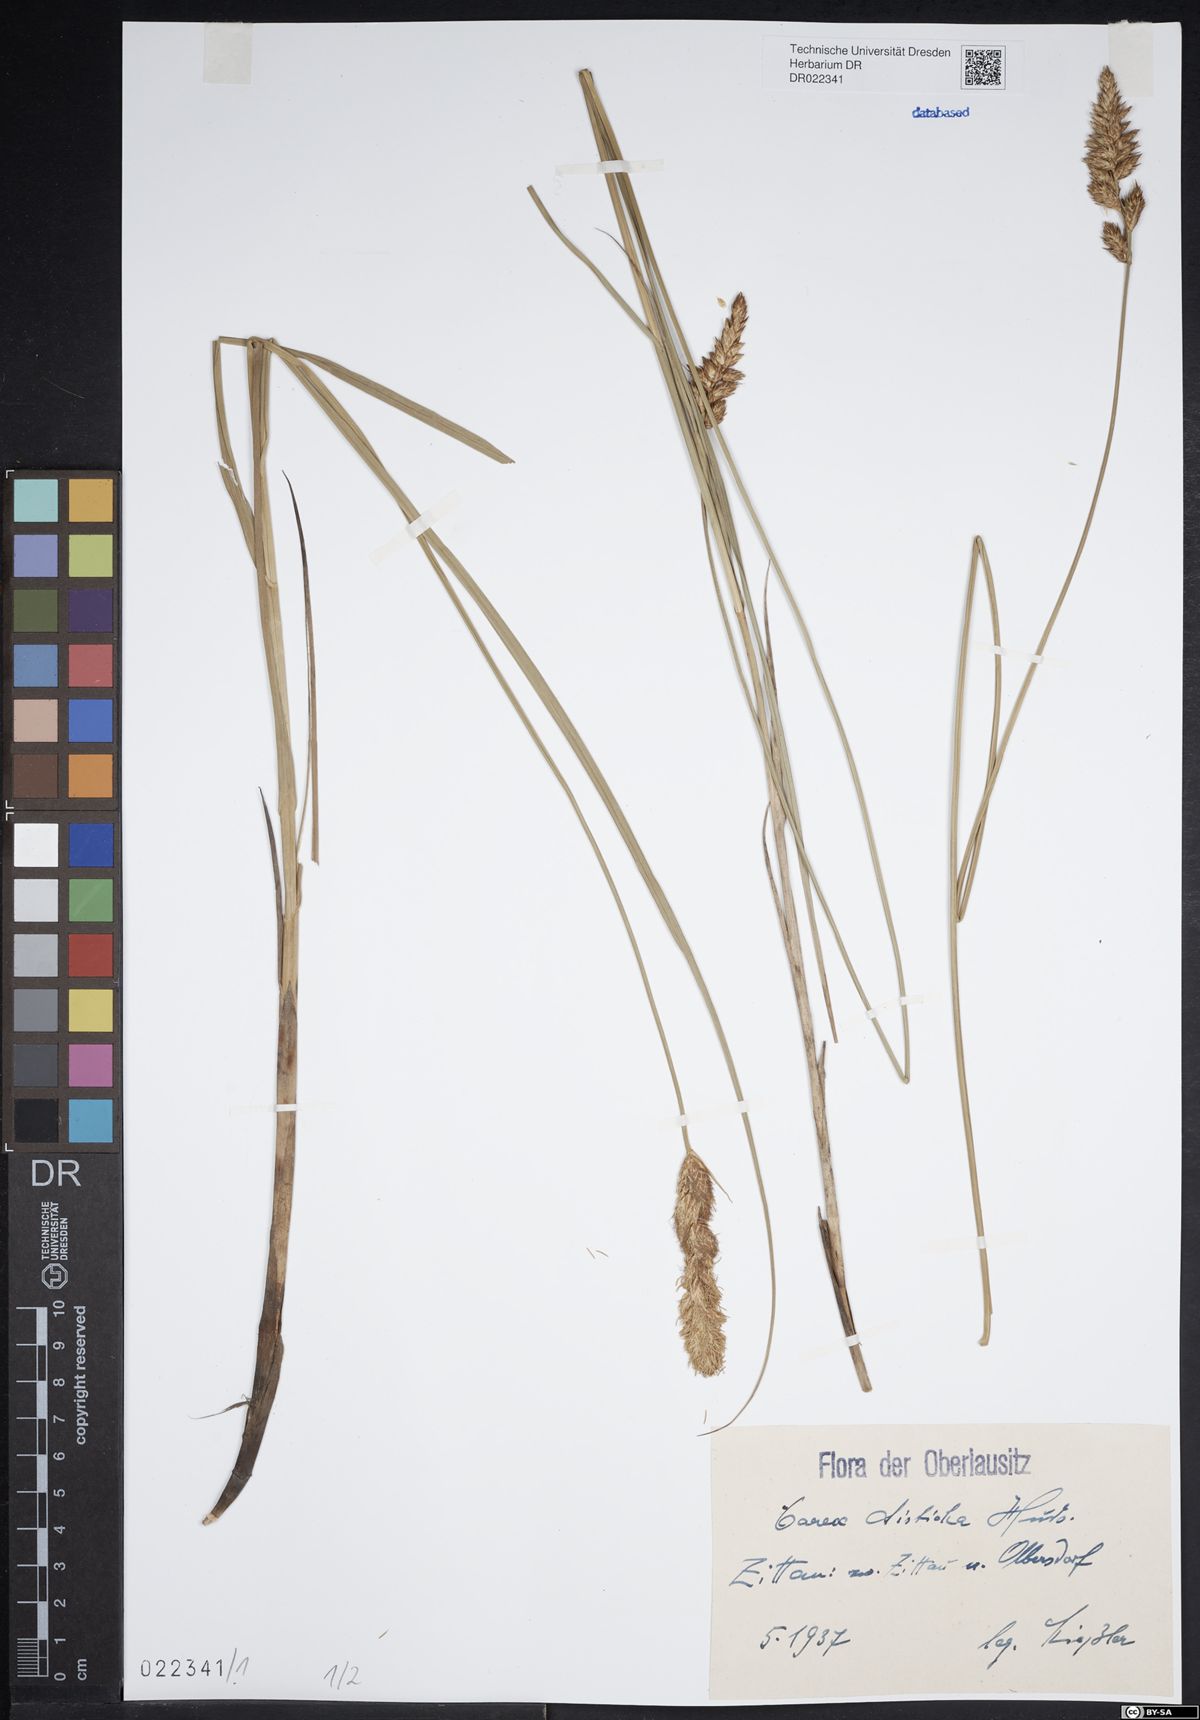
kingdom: Plantae
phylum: Tracheophyta
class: Liliopsida
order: Poales
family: Cyperaceae
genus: Carex
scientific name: Carex disticha
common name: Brown sedge
